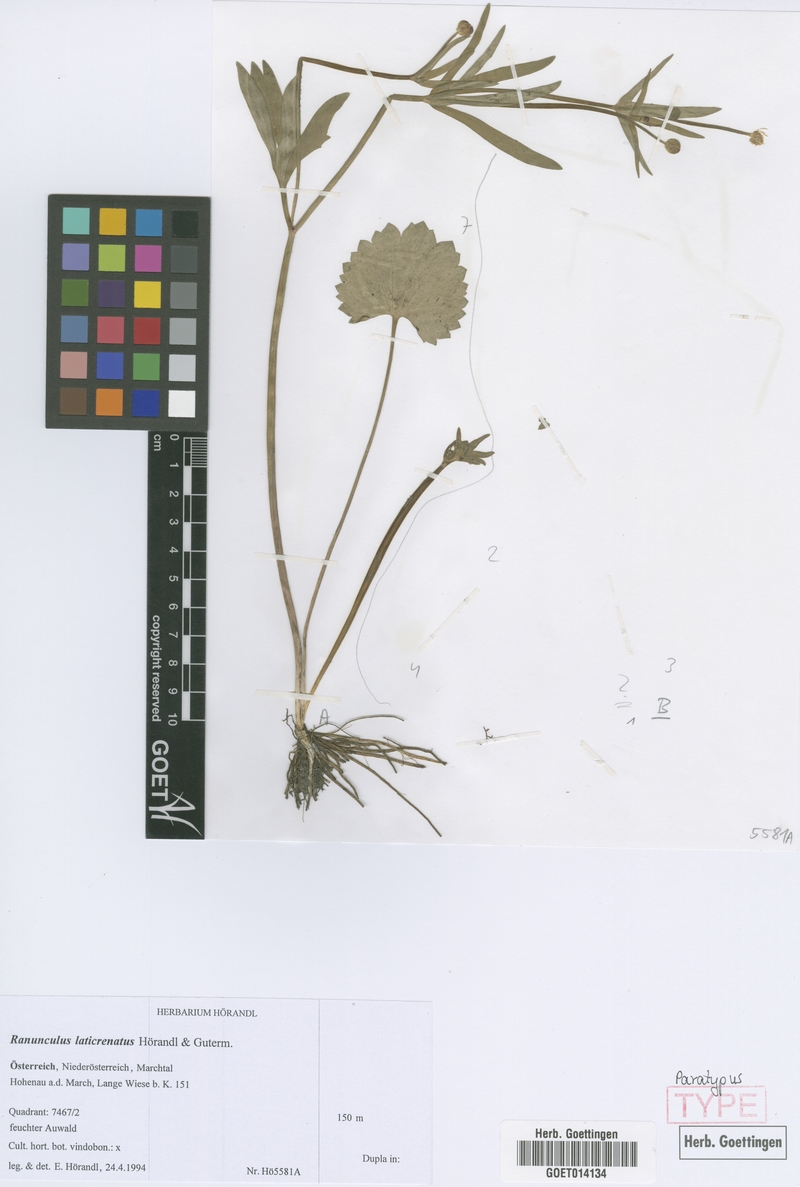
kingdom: Plantae
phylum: Tracheophyta
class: Magnoliopsida
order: Ranunculales
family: Ranunculaceae
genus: Ranunculus
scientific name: Ranunculus laticrenatus
